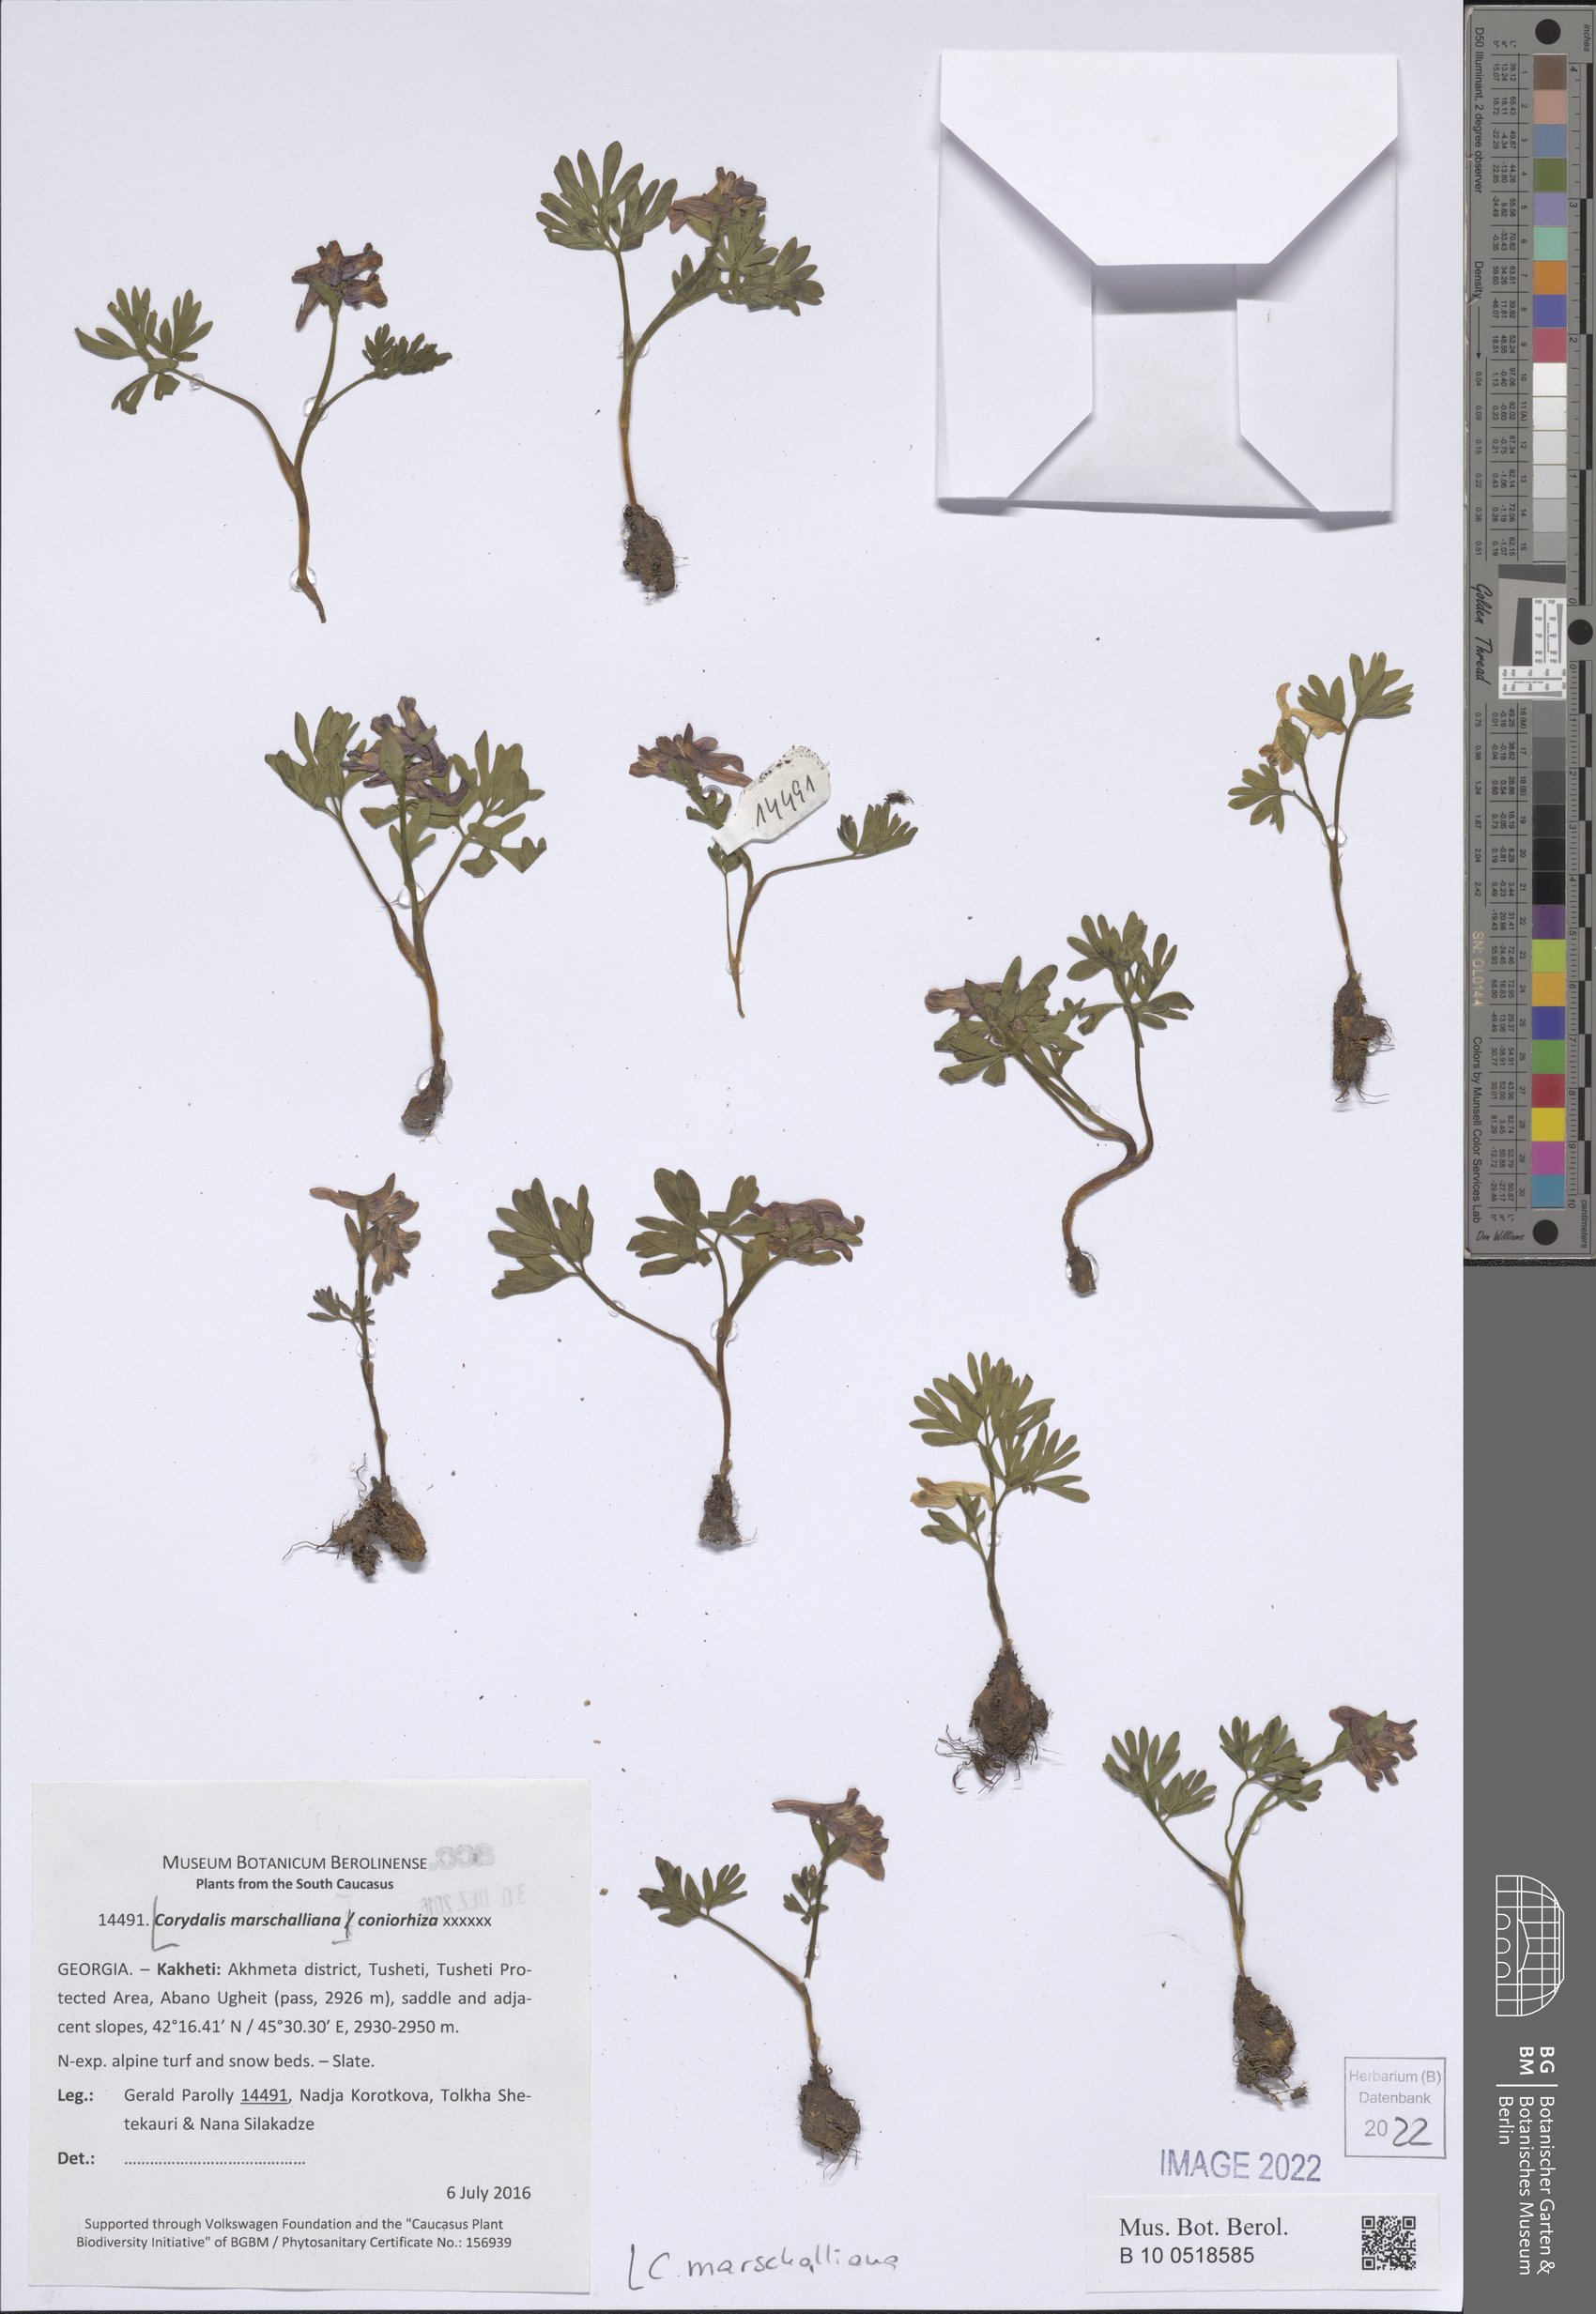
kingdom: Plantae
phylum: Tracheophyta
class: Magnoliopsida
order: Ranunculales
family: Papaveraceae
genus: Corydalis
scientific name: Corydalis cava
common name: Hollowroot
